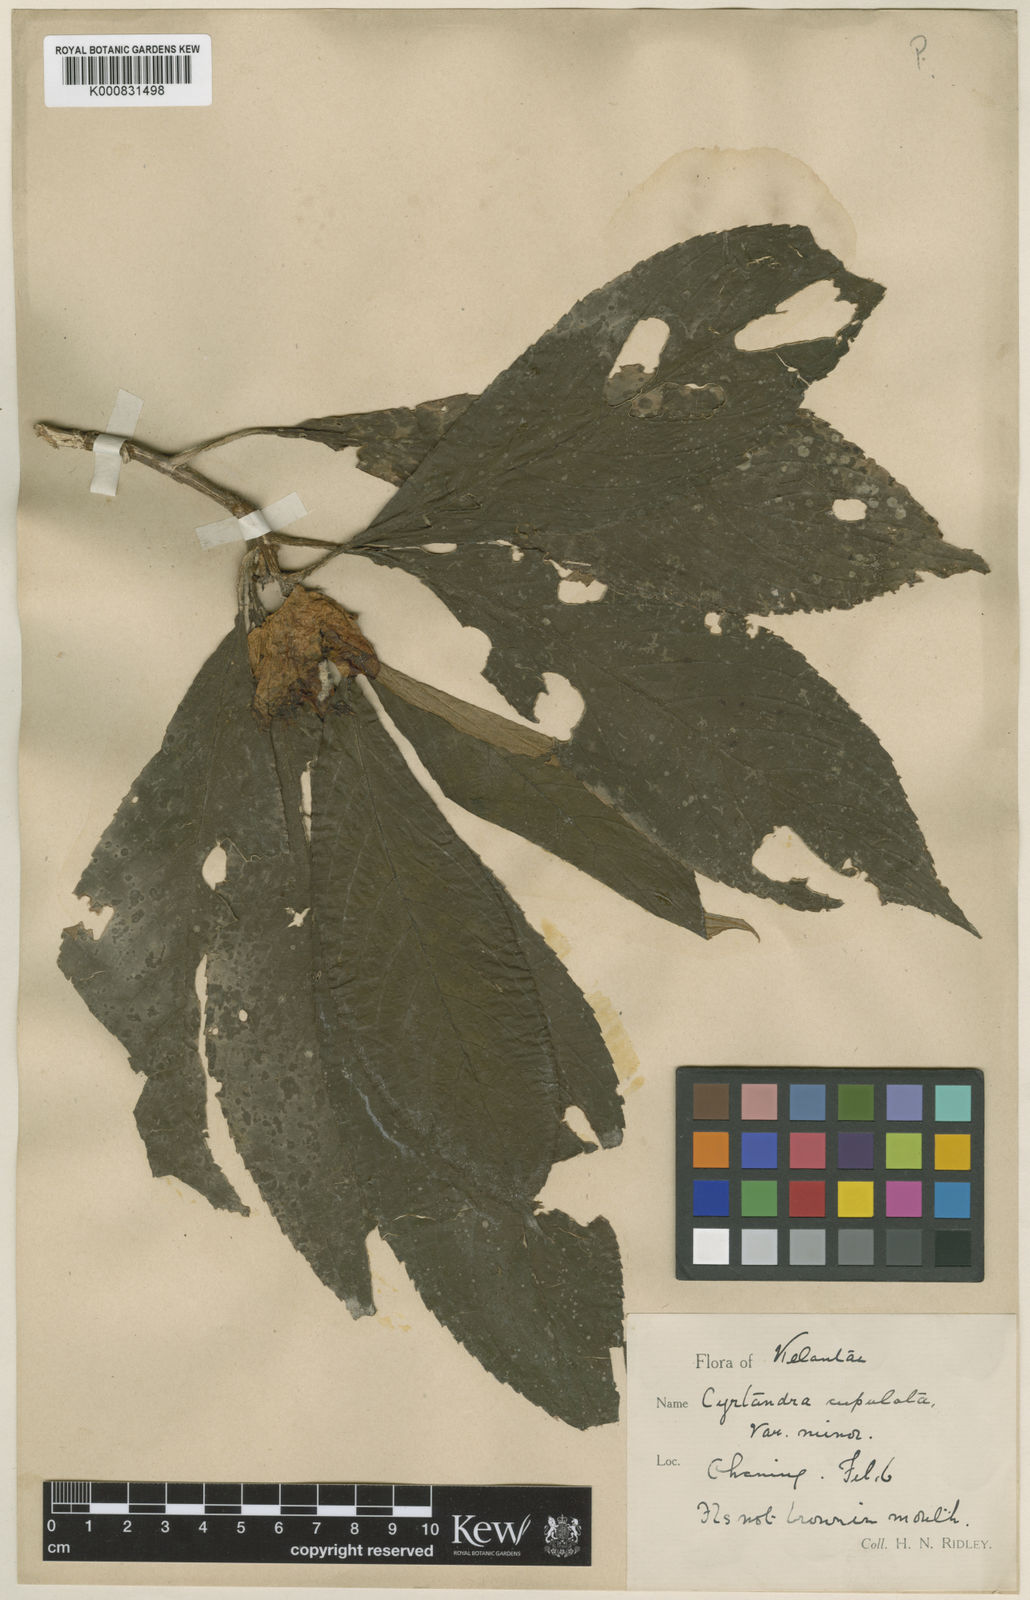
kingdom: Plantae
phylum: Tracheophyta
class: Magnoliopsida
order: Lamiales
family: Gesneriaceae
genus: Cyrtandra
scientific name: Cyrtandra cupulata
